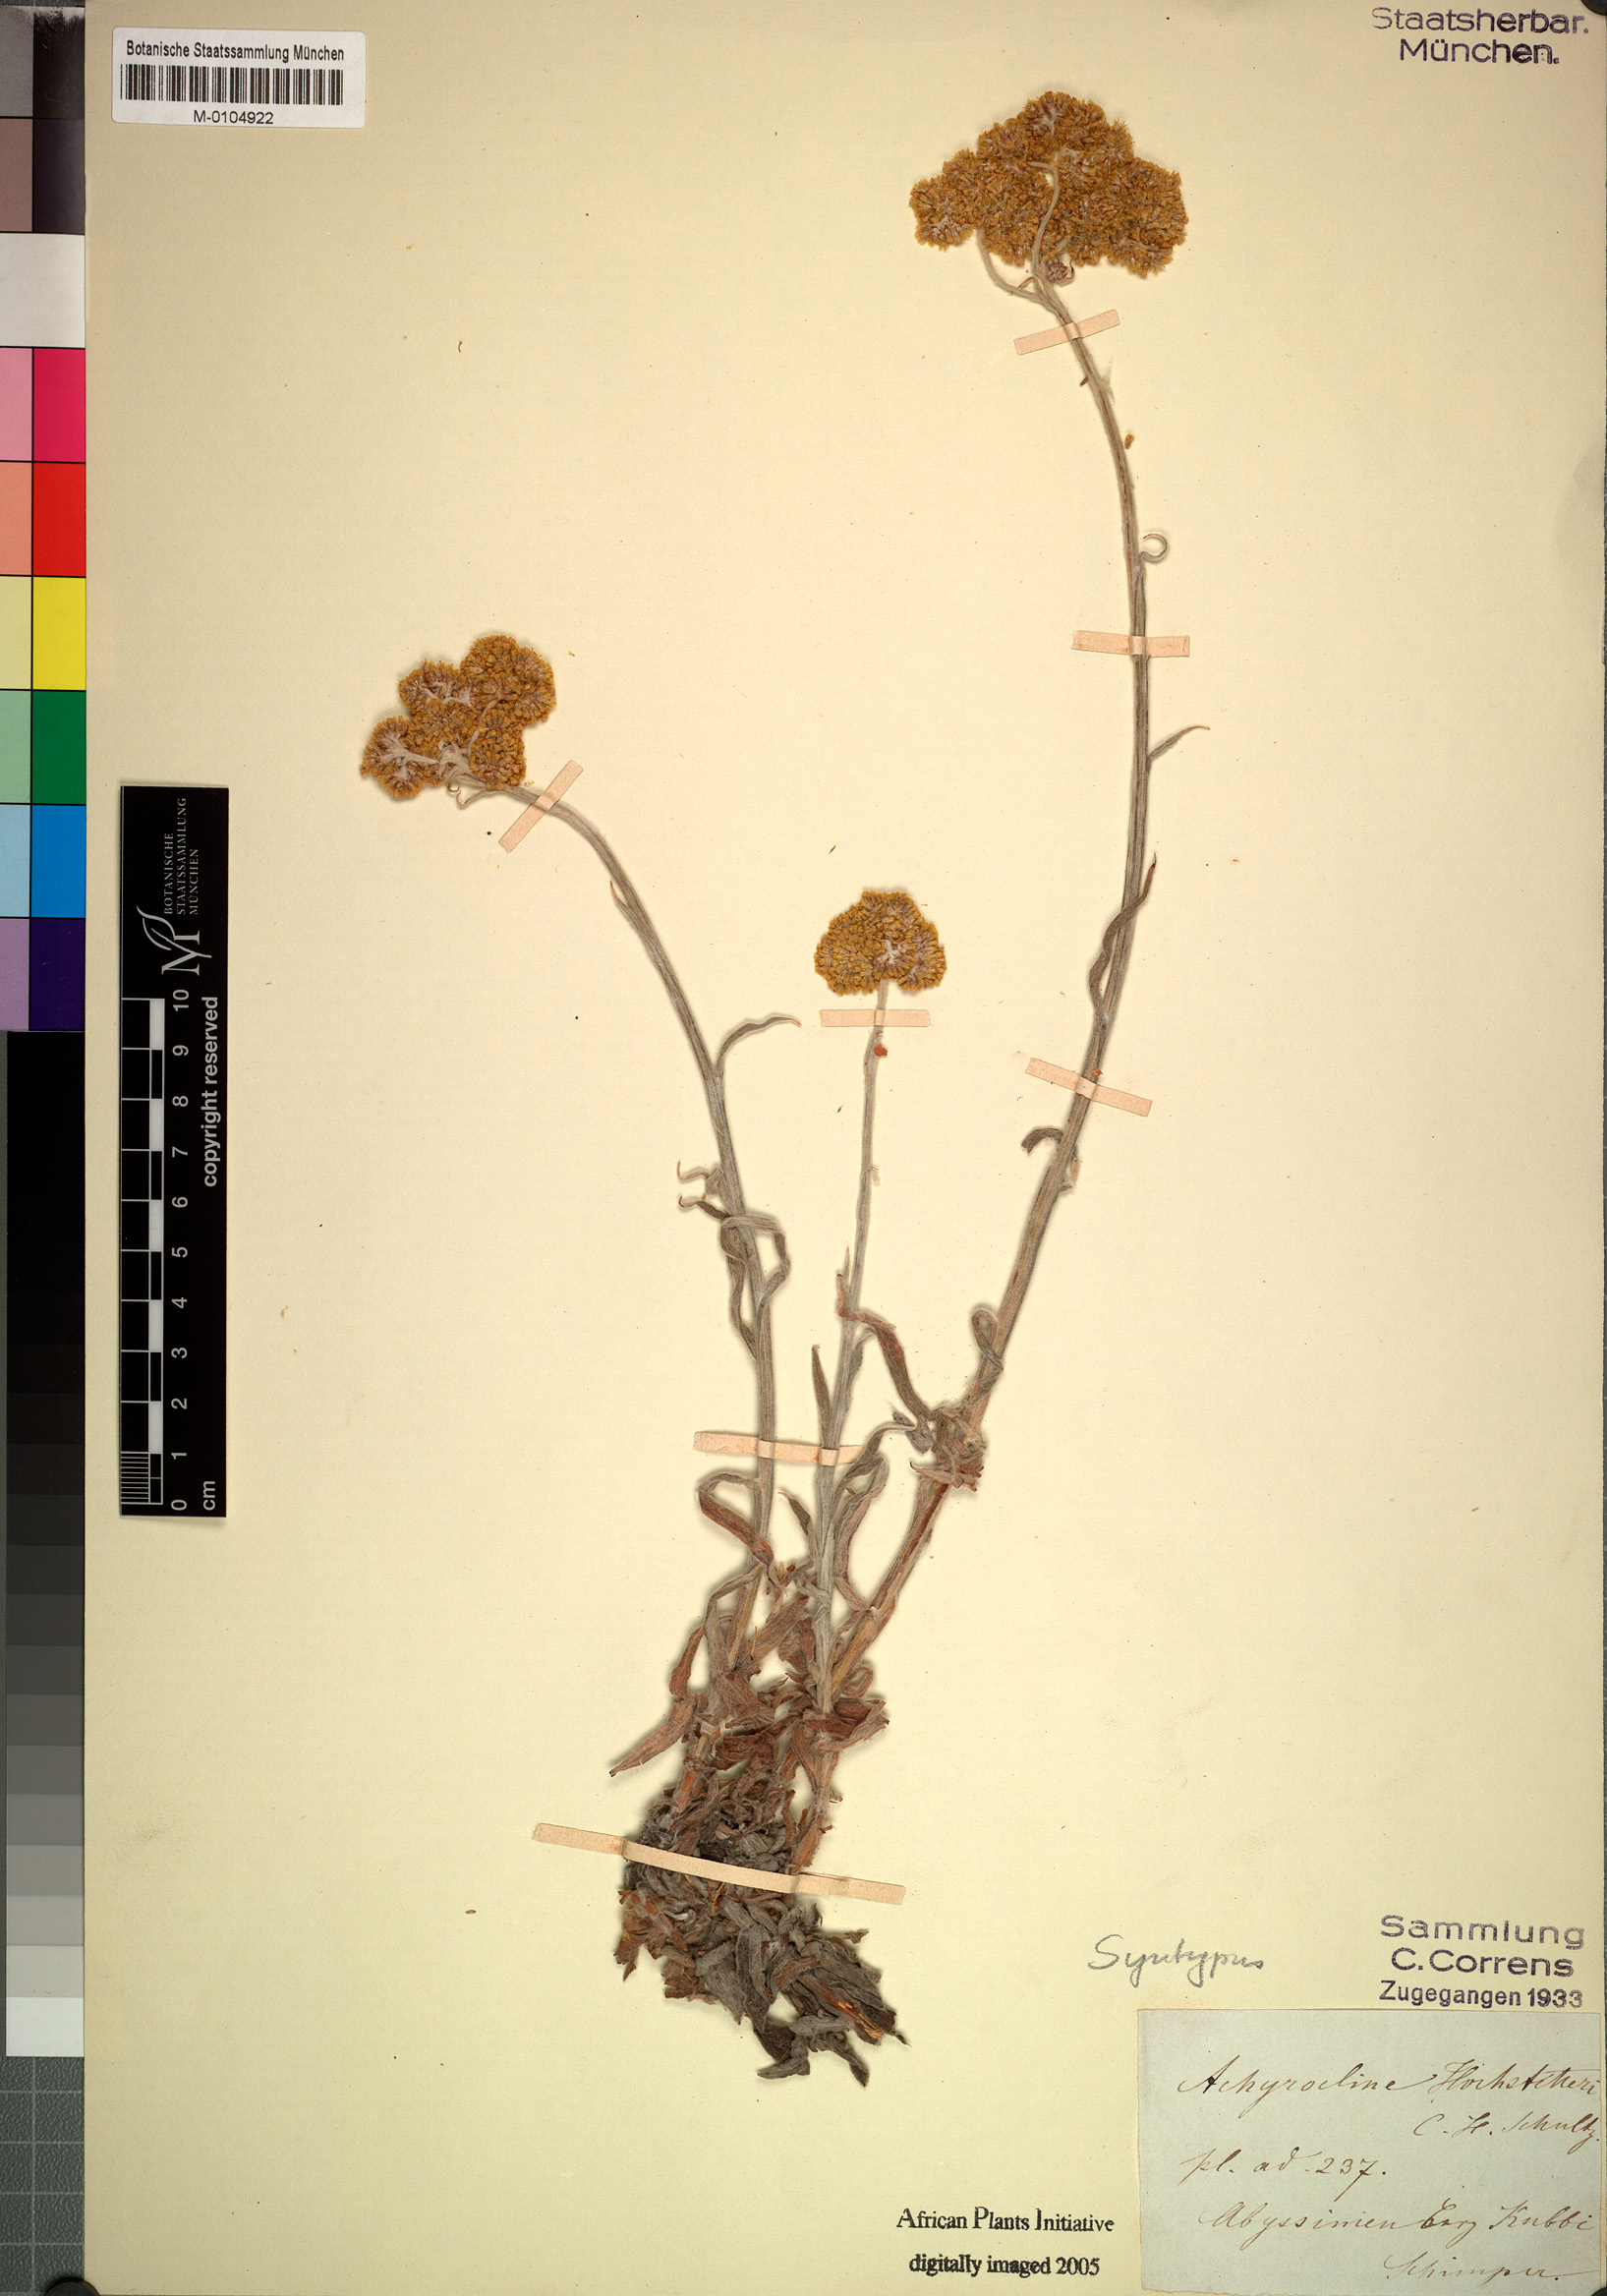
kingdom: Plantae
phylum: Tracheophyta
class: Magnoliopsida
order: Asterales
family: Asteraceae
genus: Helichrysum
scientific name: Helichrysum stenopterum
